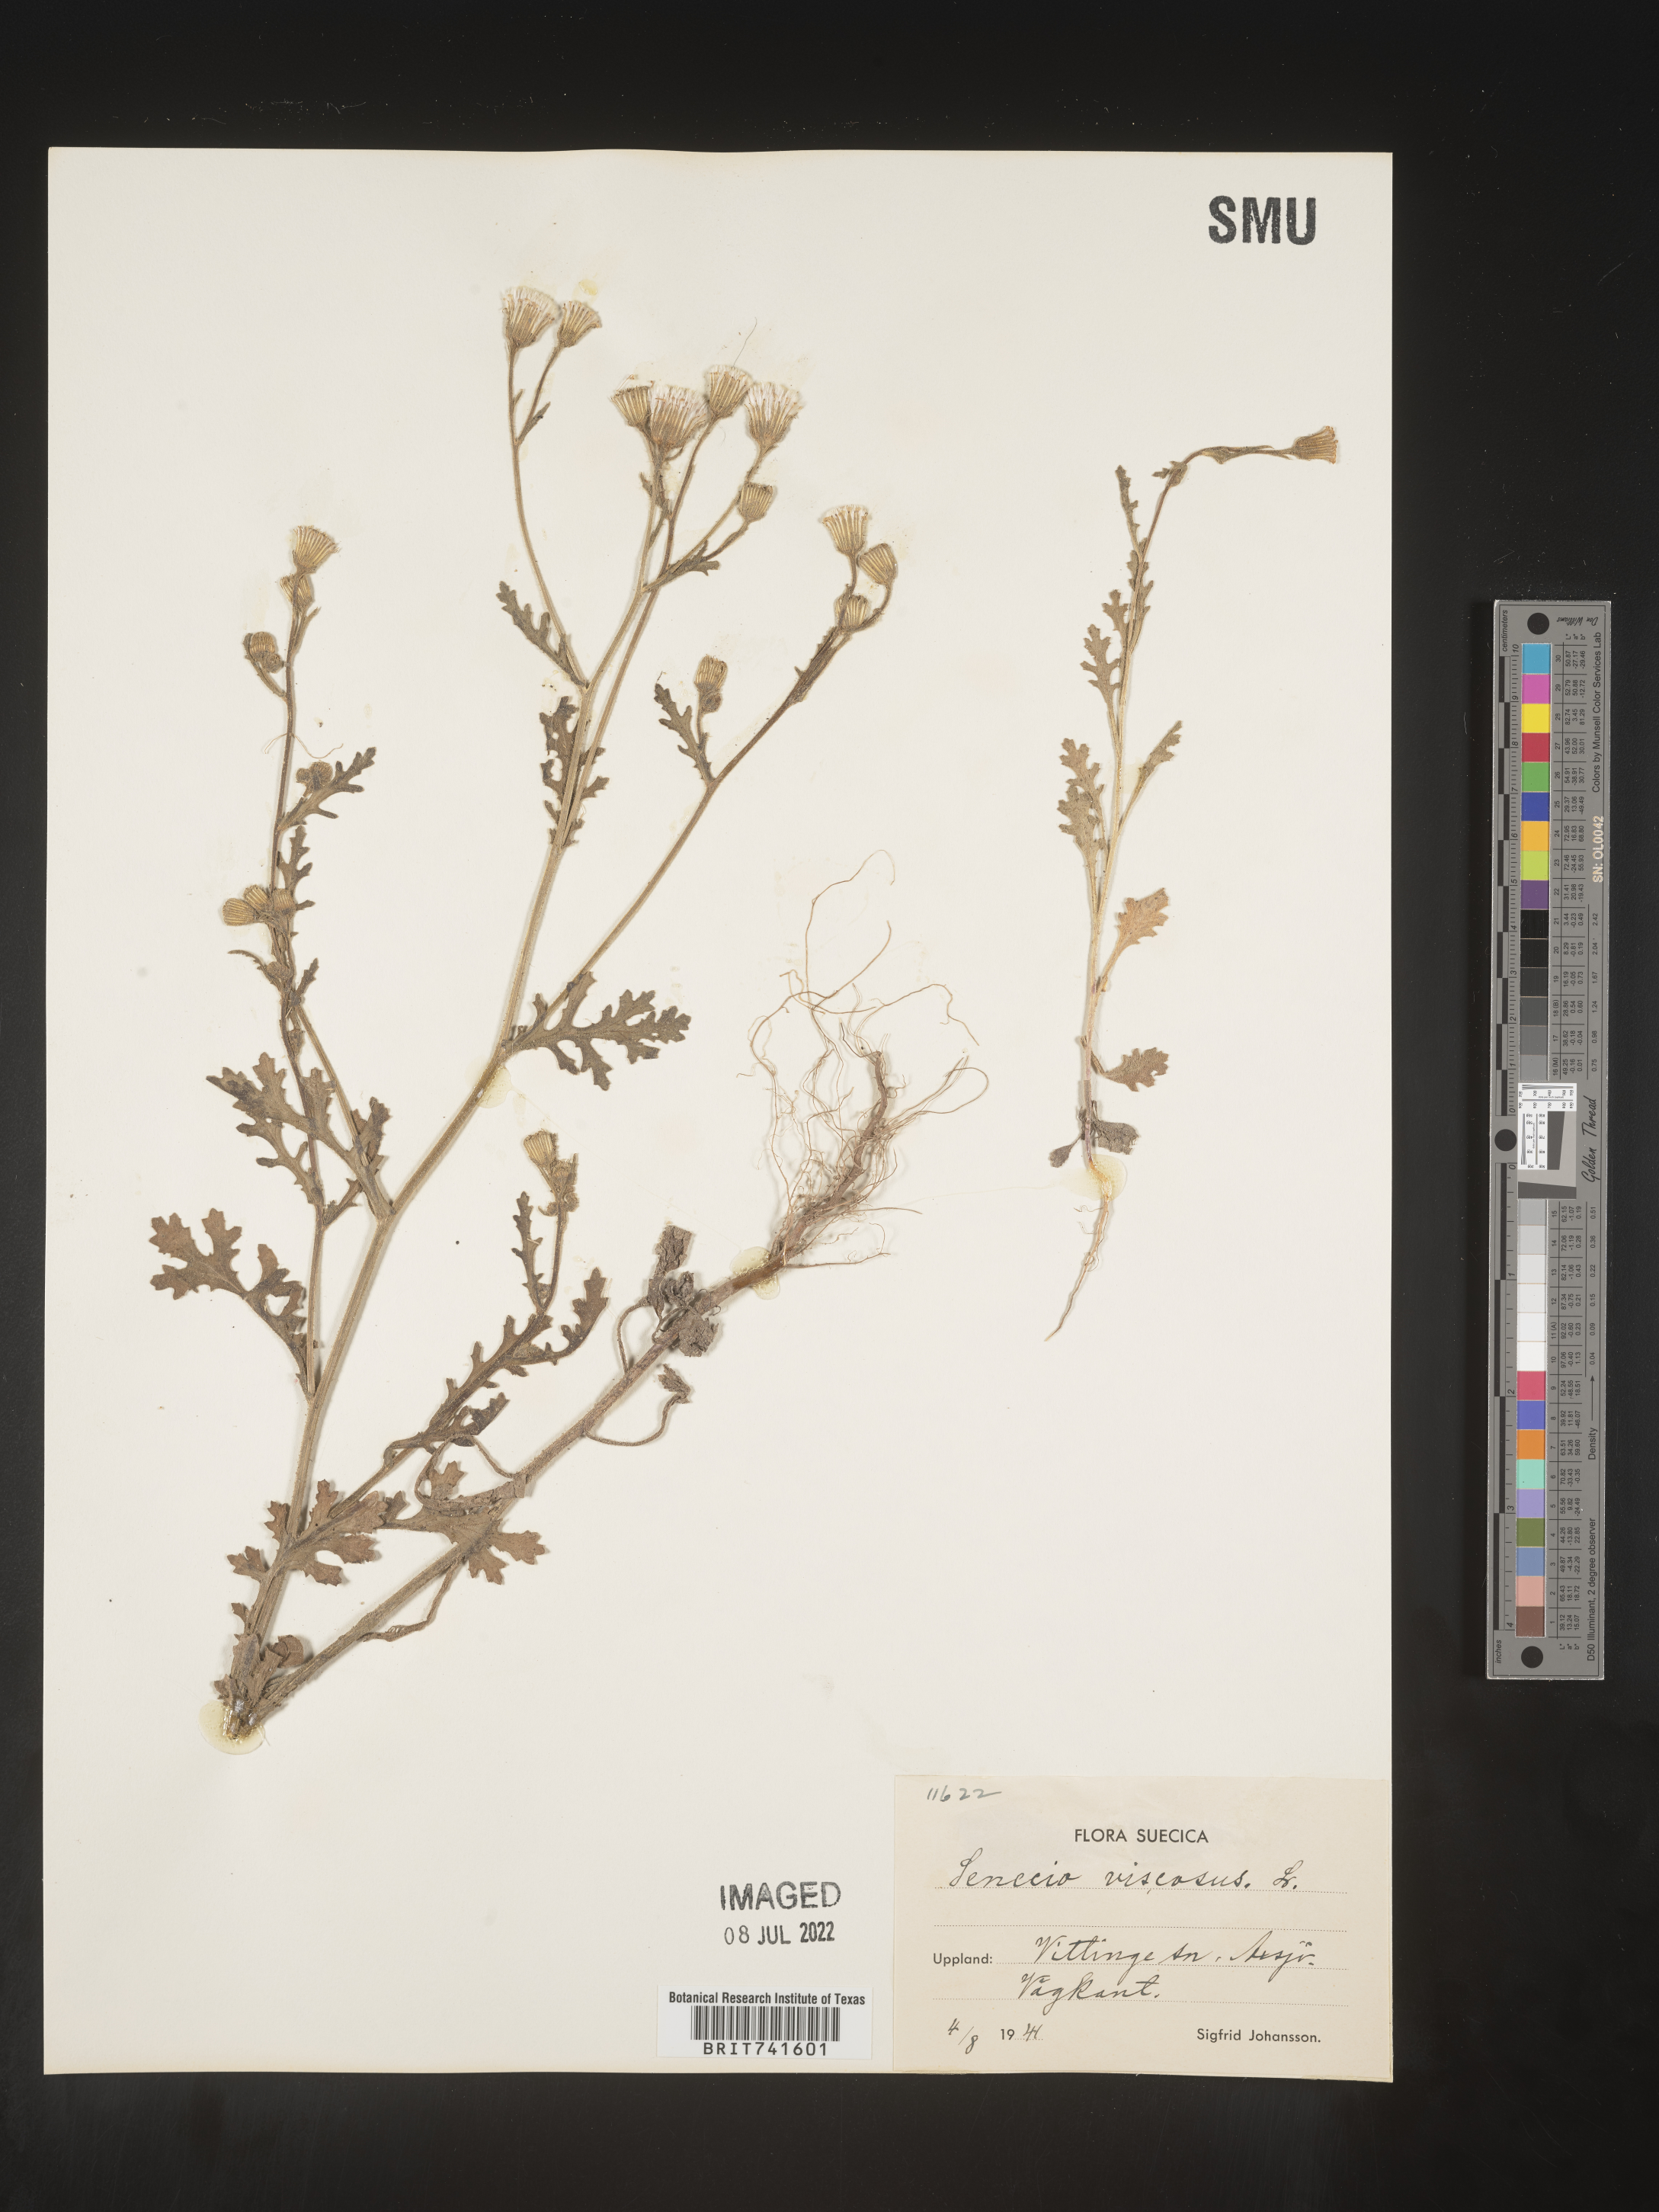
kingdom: Plantae
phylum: Tracheophyta
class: Magnoliopsida
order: Asterales
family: Asteraceae
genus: Senecio
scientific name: Senecio
